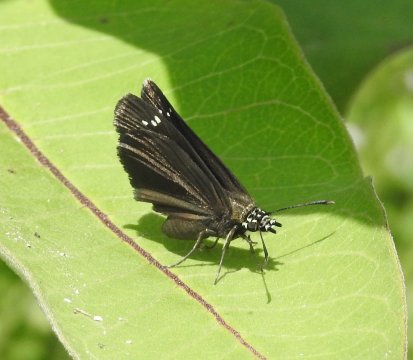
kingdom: Animalia
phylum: Arthropoda
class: Insecta
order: Lepidoptera
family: Hesperiidae
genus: Pholisora
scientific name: Pholisora catullus
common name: Common Sootywing
